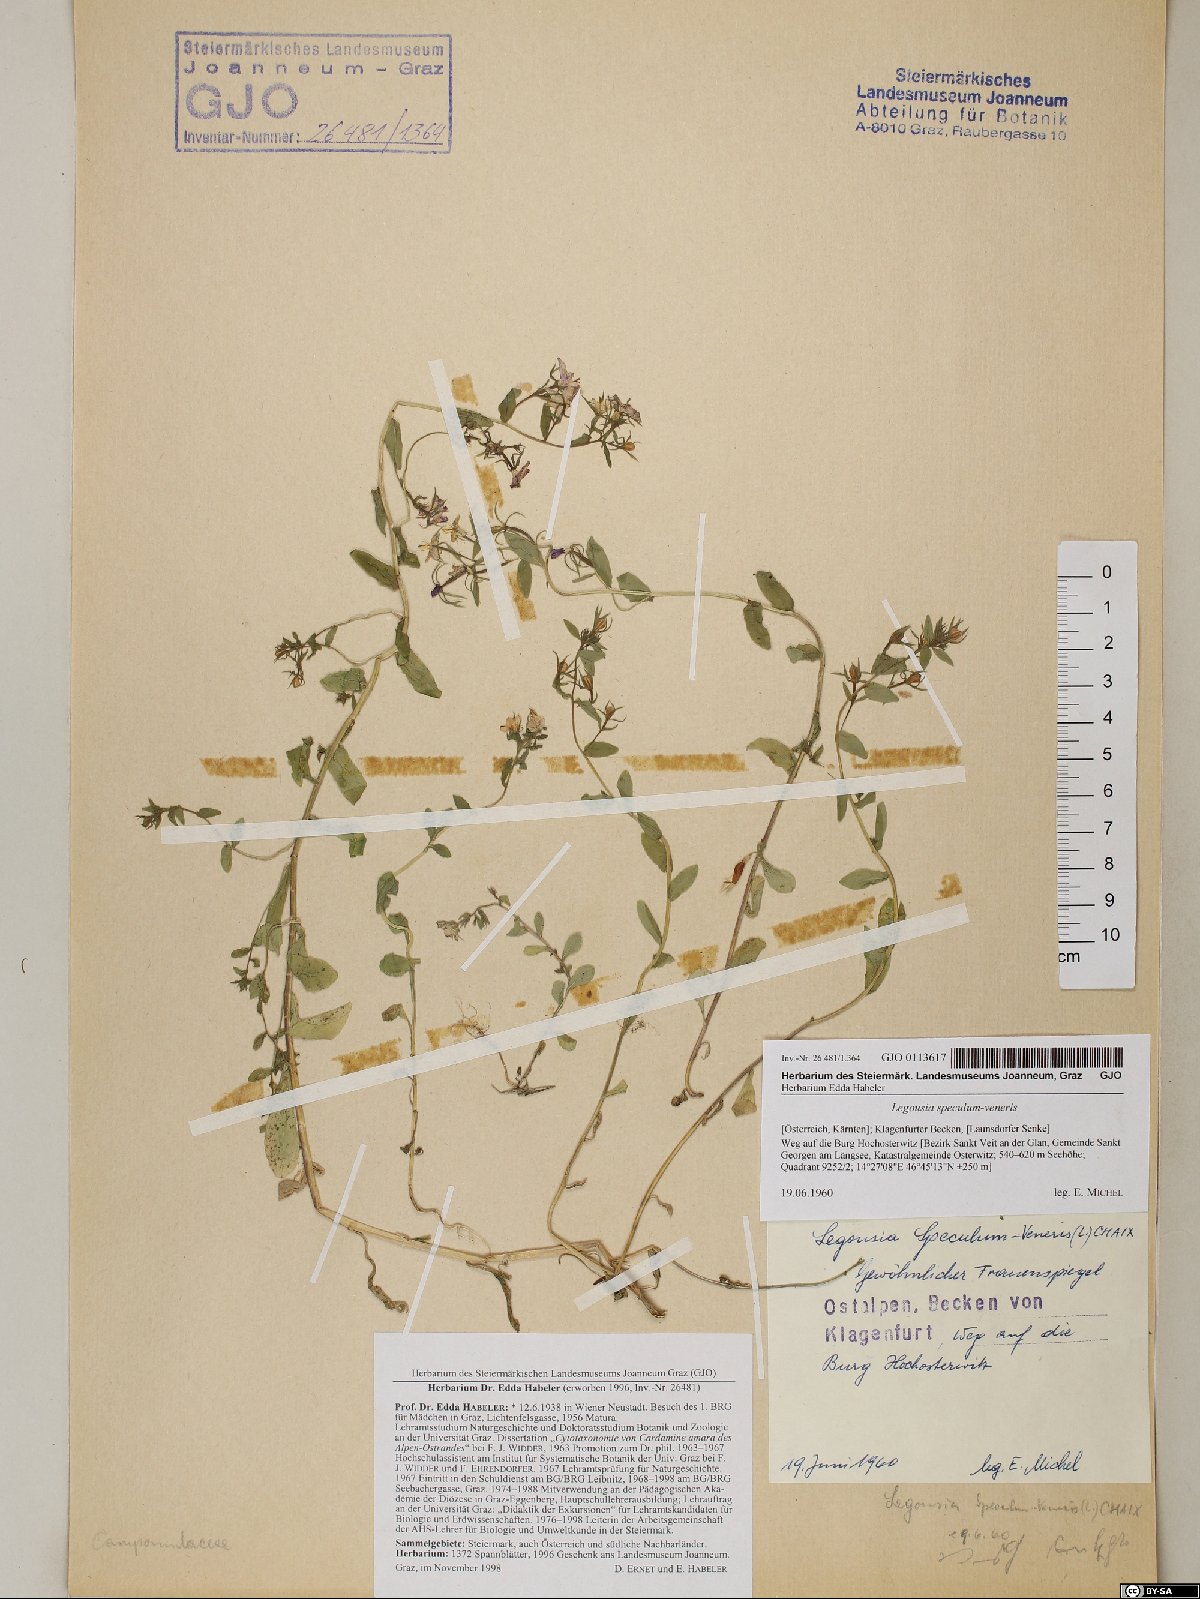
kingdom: Plantae
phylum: Tracheophyta
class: Magnoliopsida
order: Asterales
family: Campanulaceae
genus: Legousia
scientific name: Legousia speculum-veneris
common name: Large venus's-looking-glass
